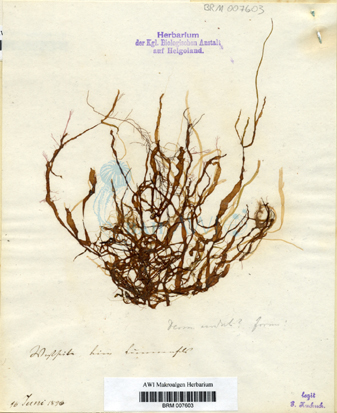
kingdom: Chromista
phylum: Ochrophyta
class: Phaeophyceae
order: Ectocarpales
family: Chordariaceae
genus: Punctaria
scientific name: Punctaria tenuissima
